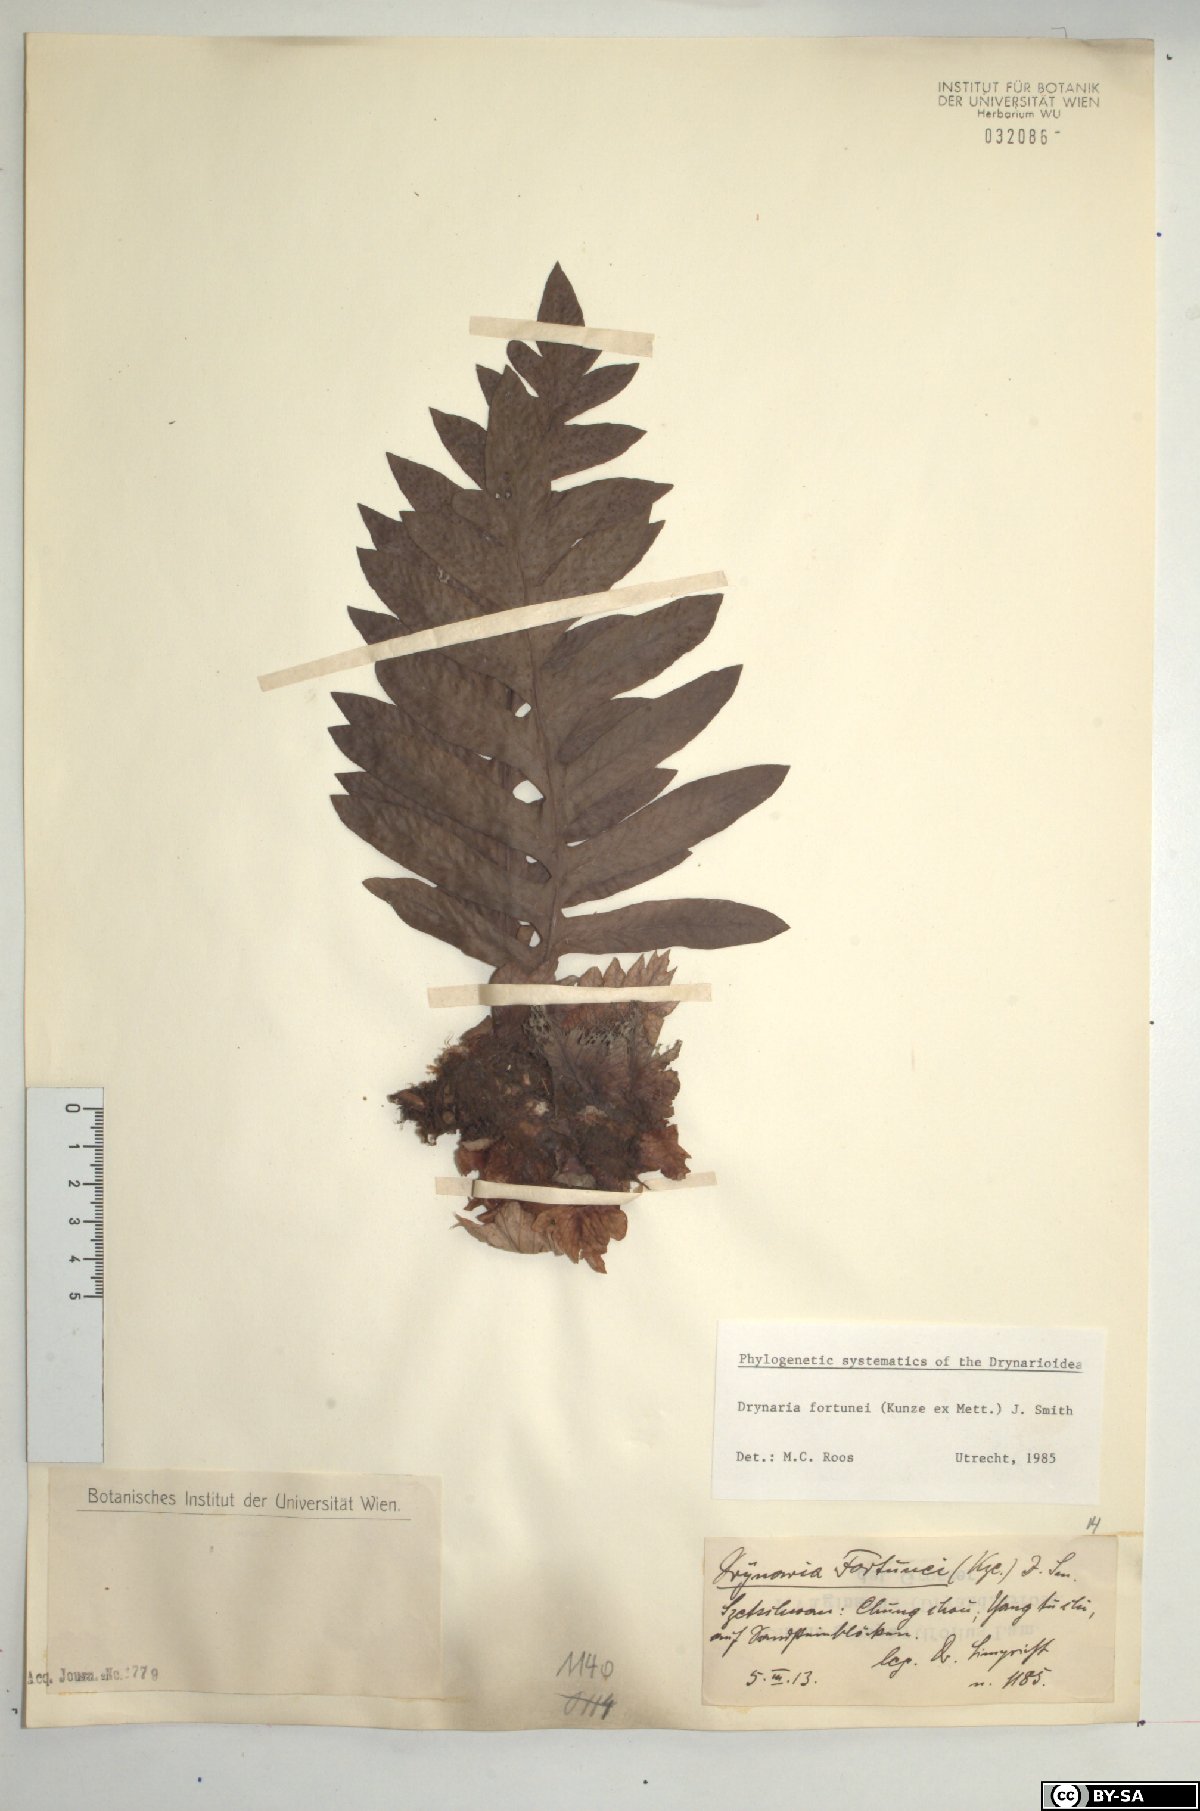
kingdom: Plantae
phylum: Tracheophyta
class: Polypodiopsida
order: Polypodiales
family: Polypodiaceae
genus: Drynaria
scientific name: Drynaria roosii
